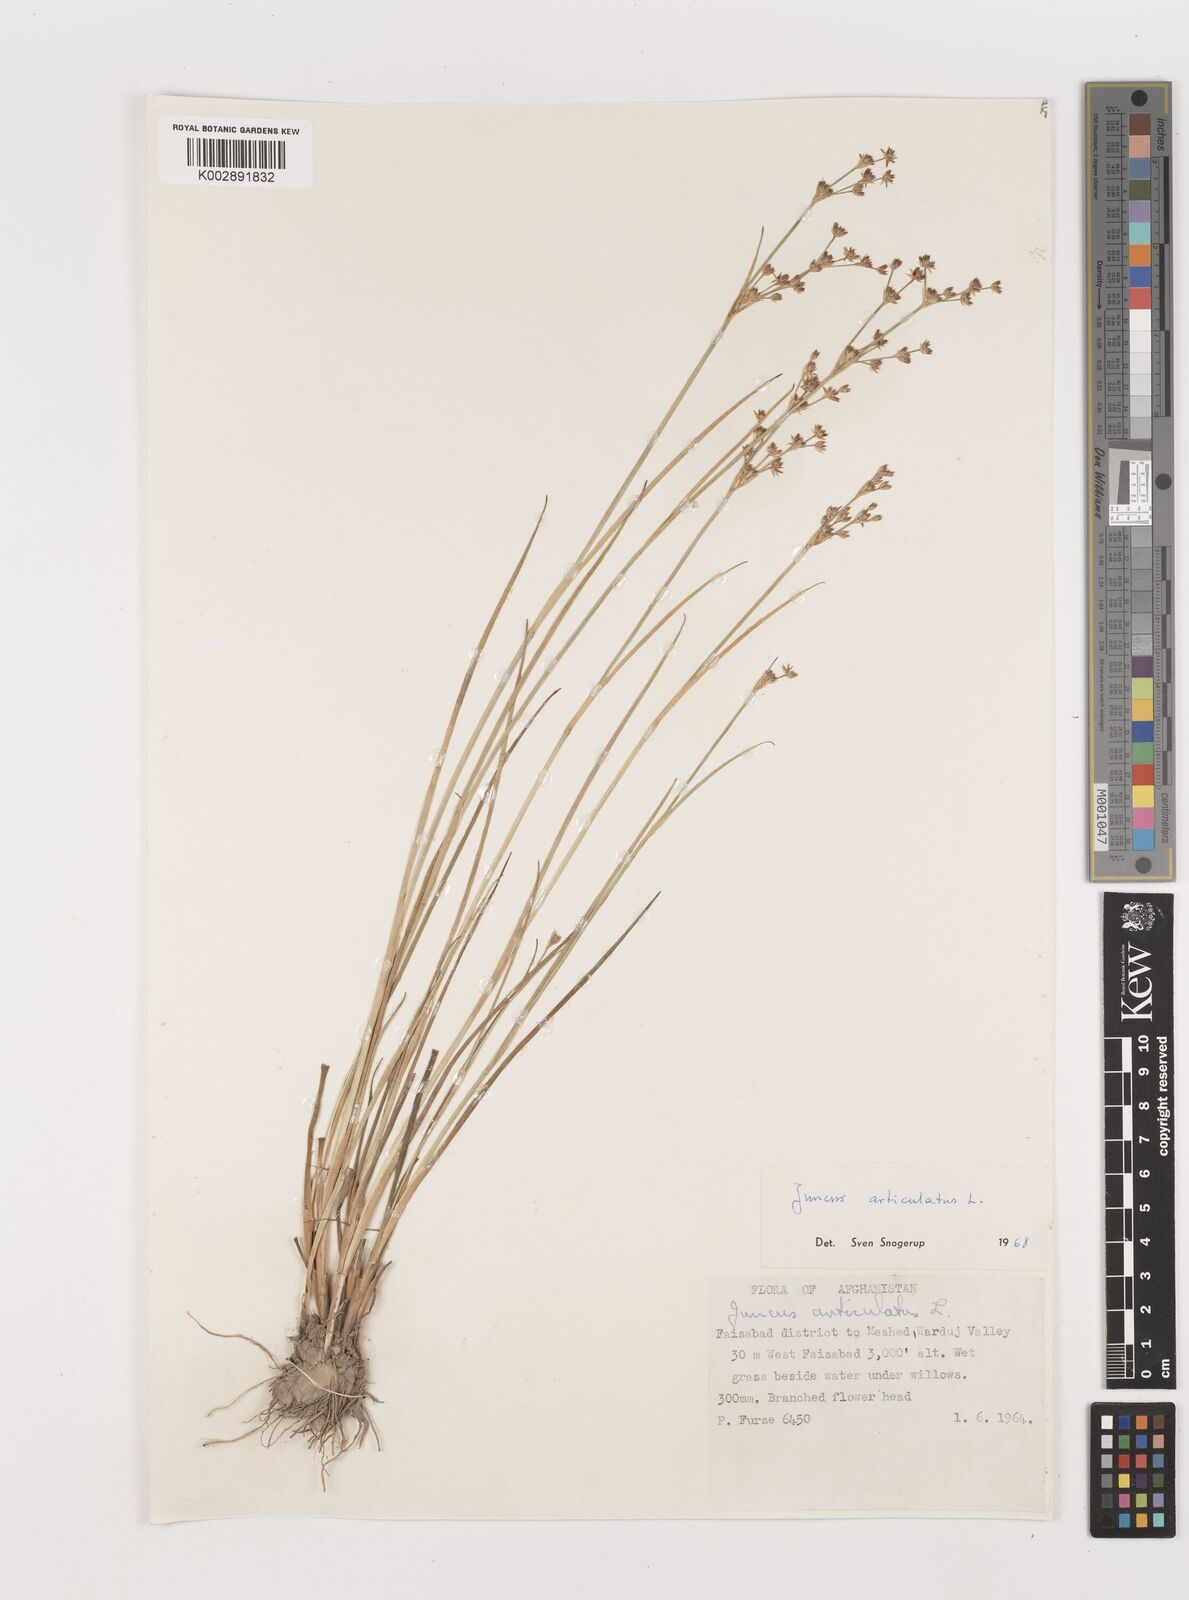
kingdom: Plantae
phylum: Tracheophyta
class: Liliopsida
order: Poales
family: Juncaceae
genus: Juncus
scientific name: Juncus articulatus
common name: Jointed rush
